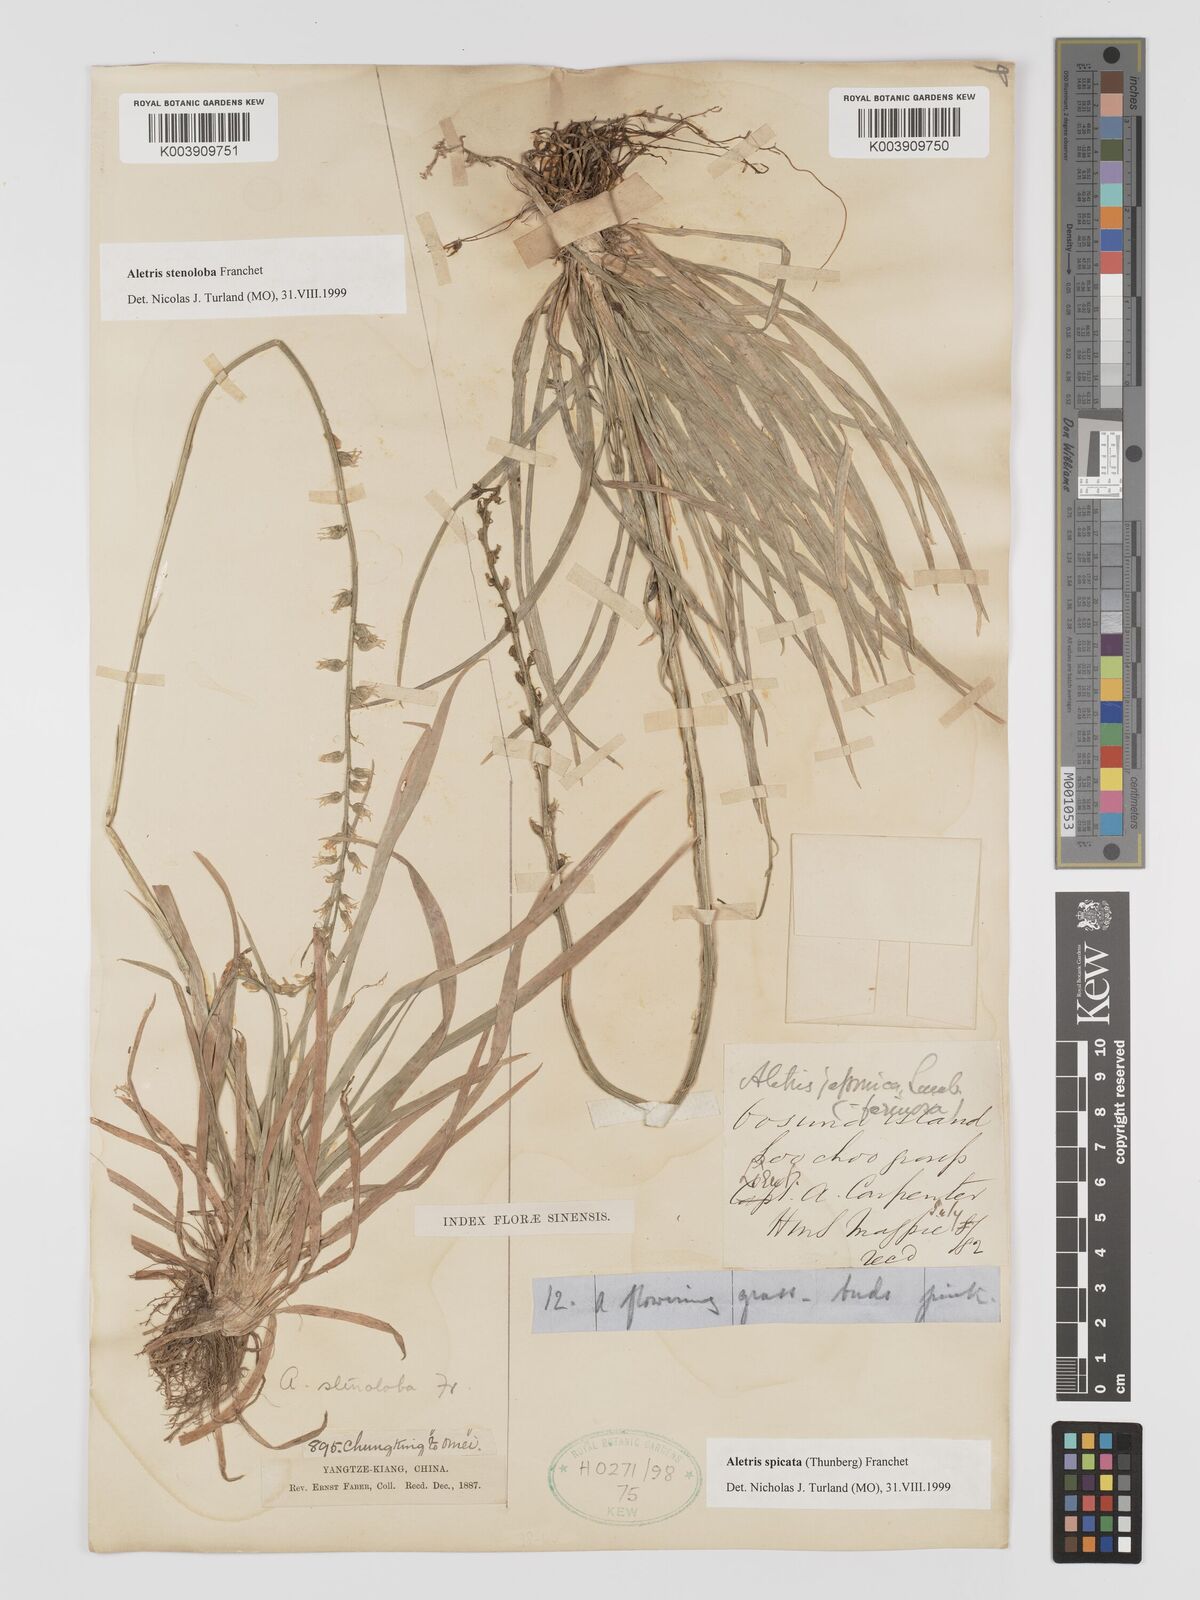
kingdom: Plantae
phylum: Tracheophyta
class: Liliopsida
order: Dioscoreales
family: Nartheciaceae
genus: Aletris
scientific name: Aletris spicata
